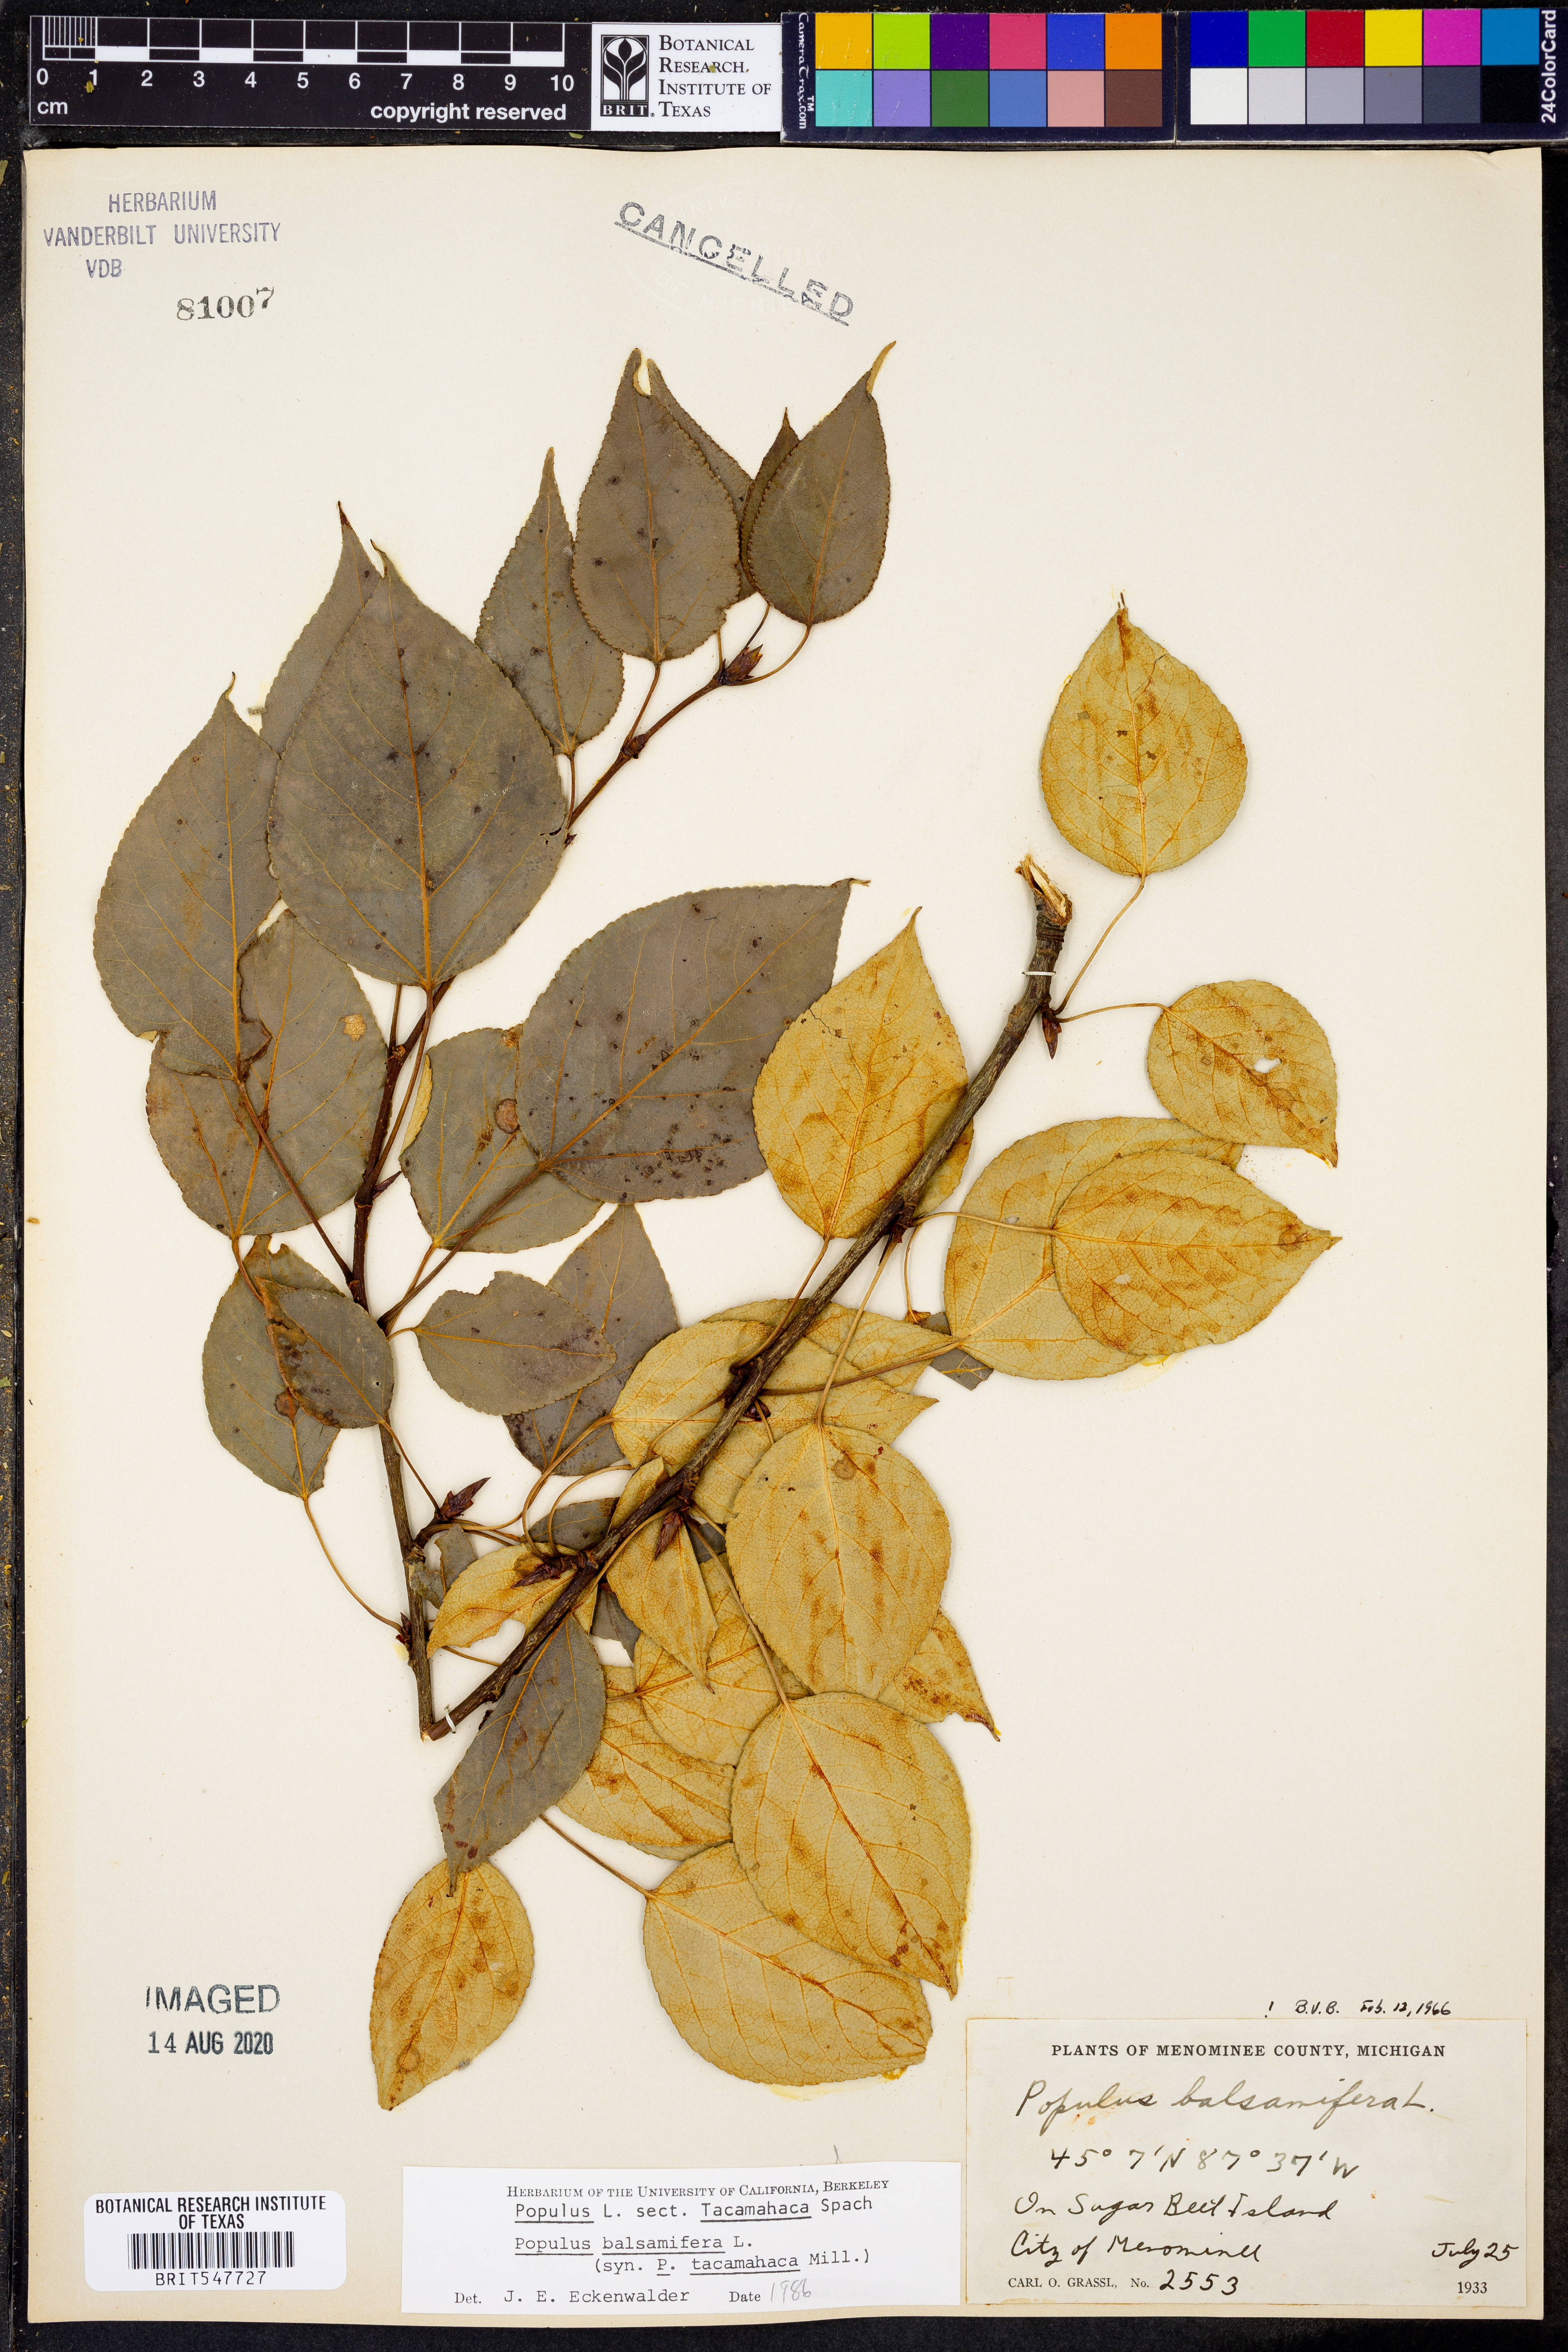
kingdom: Plantae
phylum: Tracheophyta
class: Magnoliopsida
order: Malpighiales
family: Salicaceae
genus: Populus
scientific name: Populus balsamifera
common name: Balsam poplar
